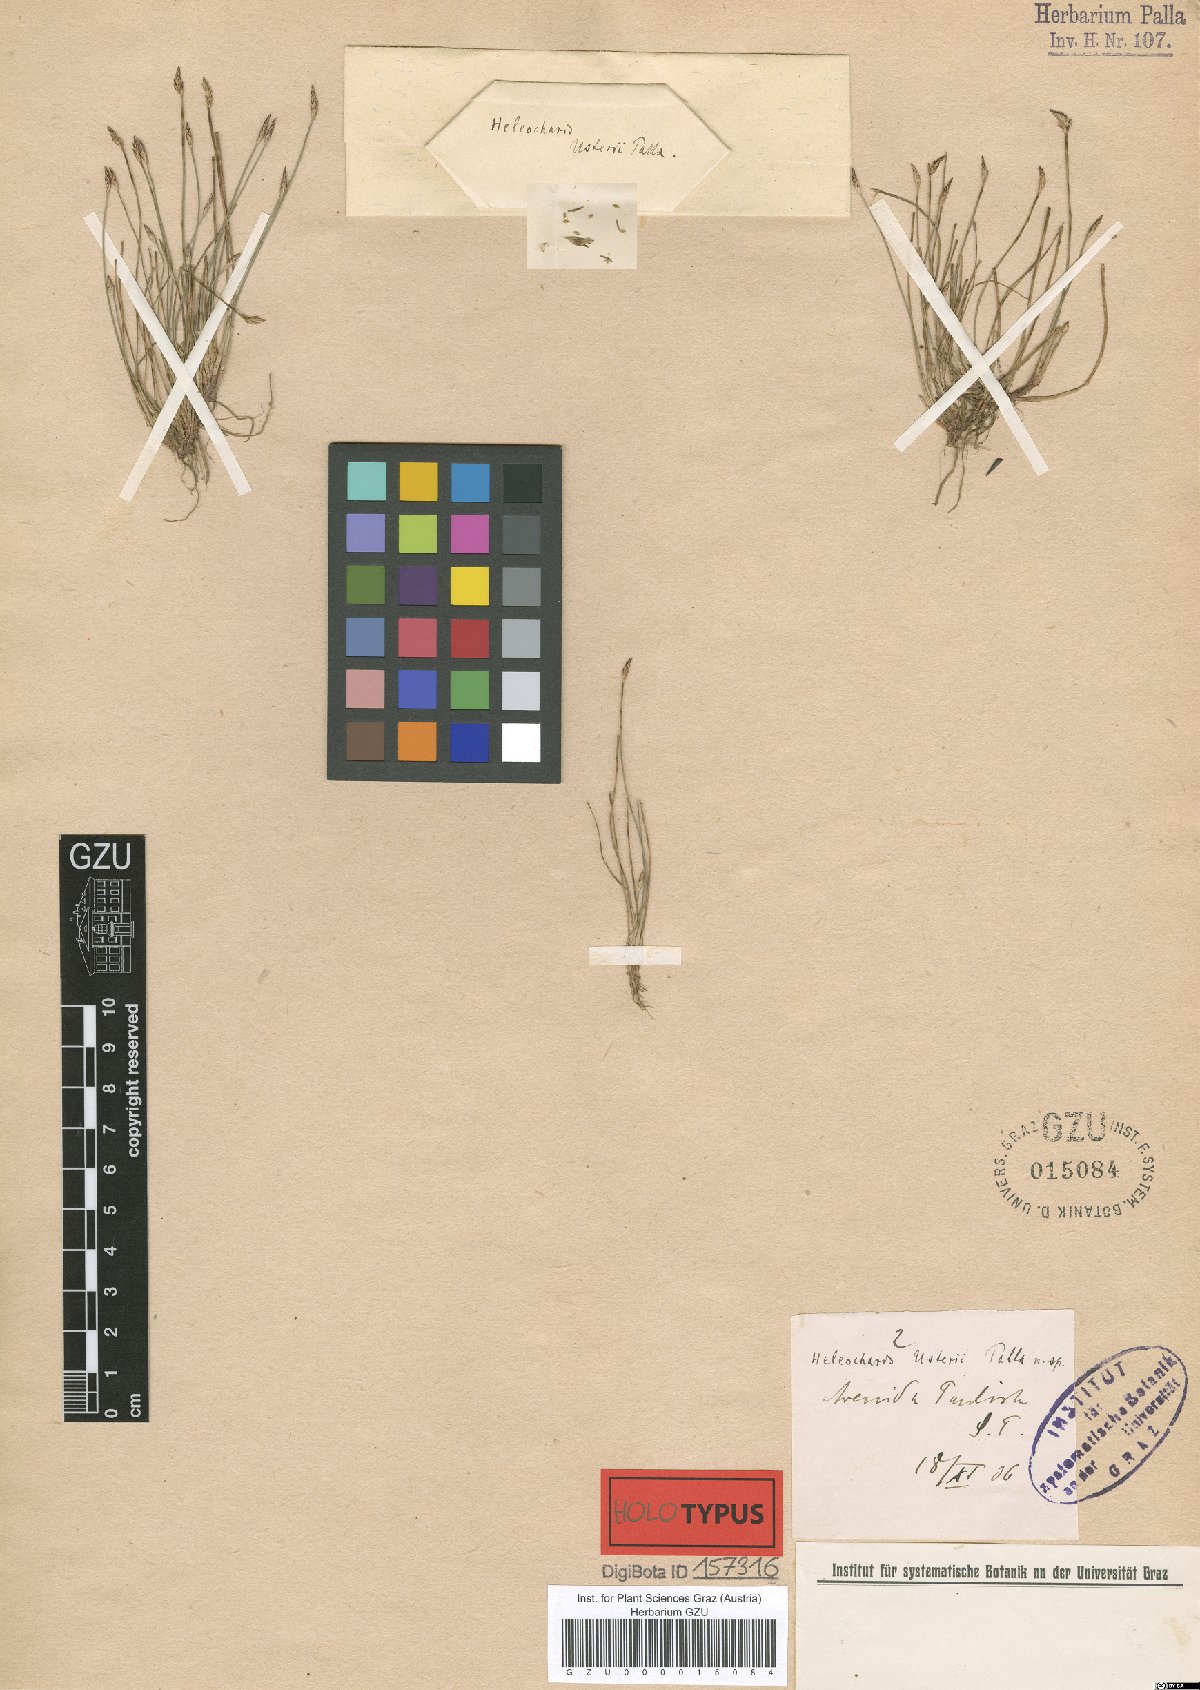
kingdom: Plantae
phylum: Tracheophyta
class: Liliopsida
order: Poales
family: Cyperaceae
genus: Eleocharis
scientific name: Eleocharis usterii
